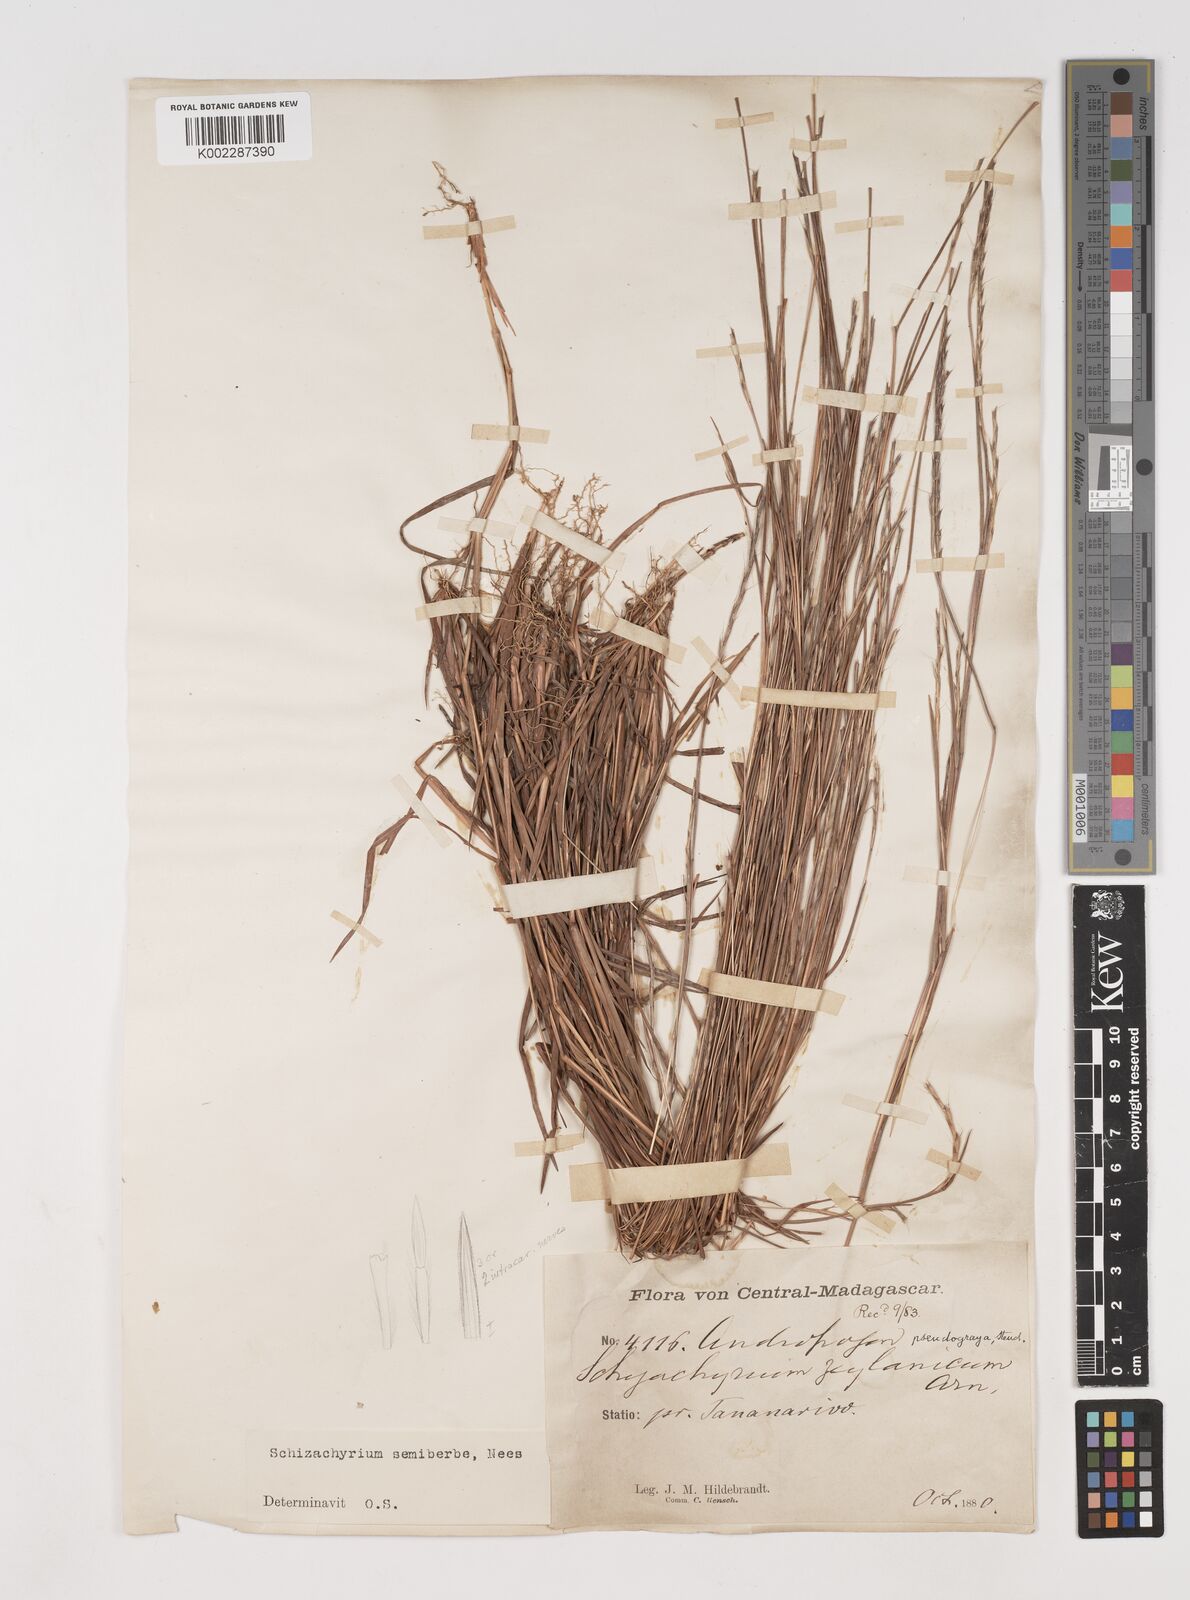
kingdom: Plantae
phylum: Tracheophyta
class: Liliopsida
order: Poales
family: Poaceae
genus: Schizachyrium
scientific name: Schizachyrium sanguineum
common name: Crimson bluestem
